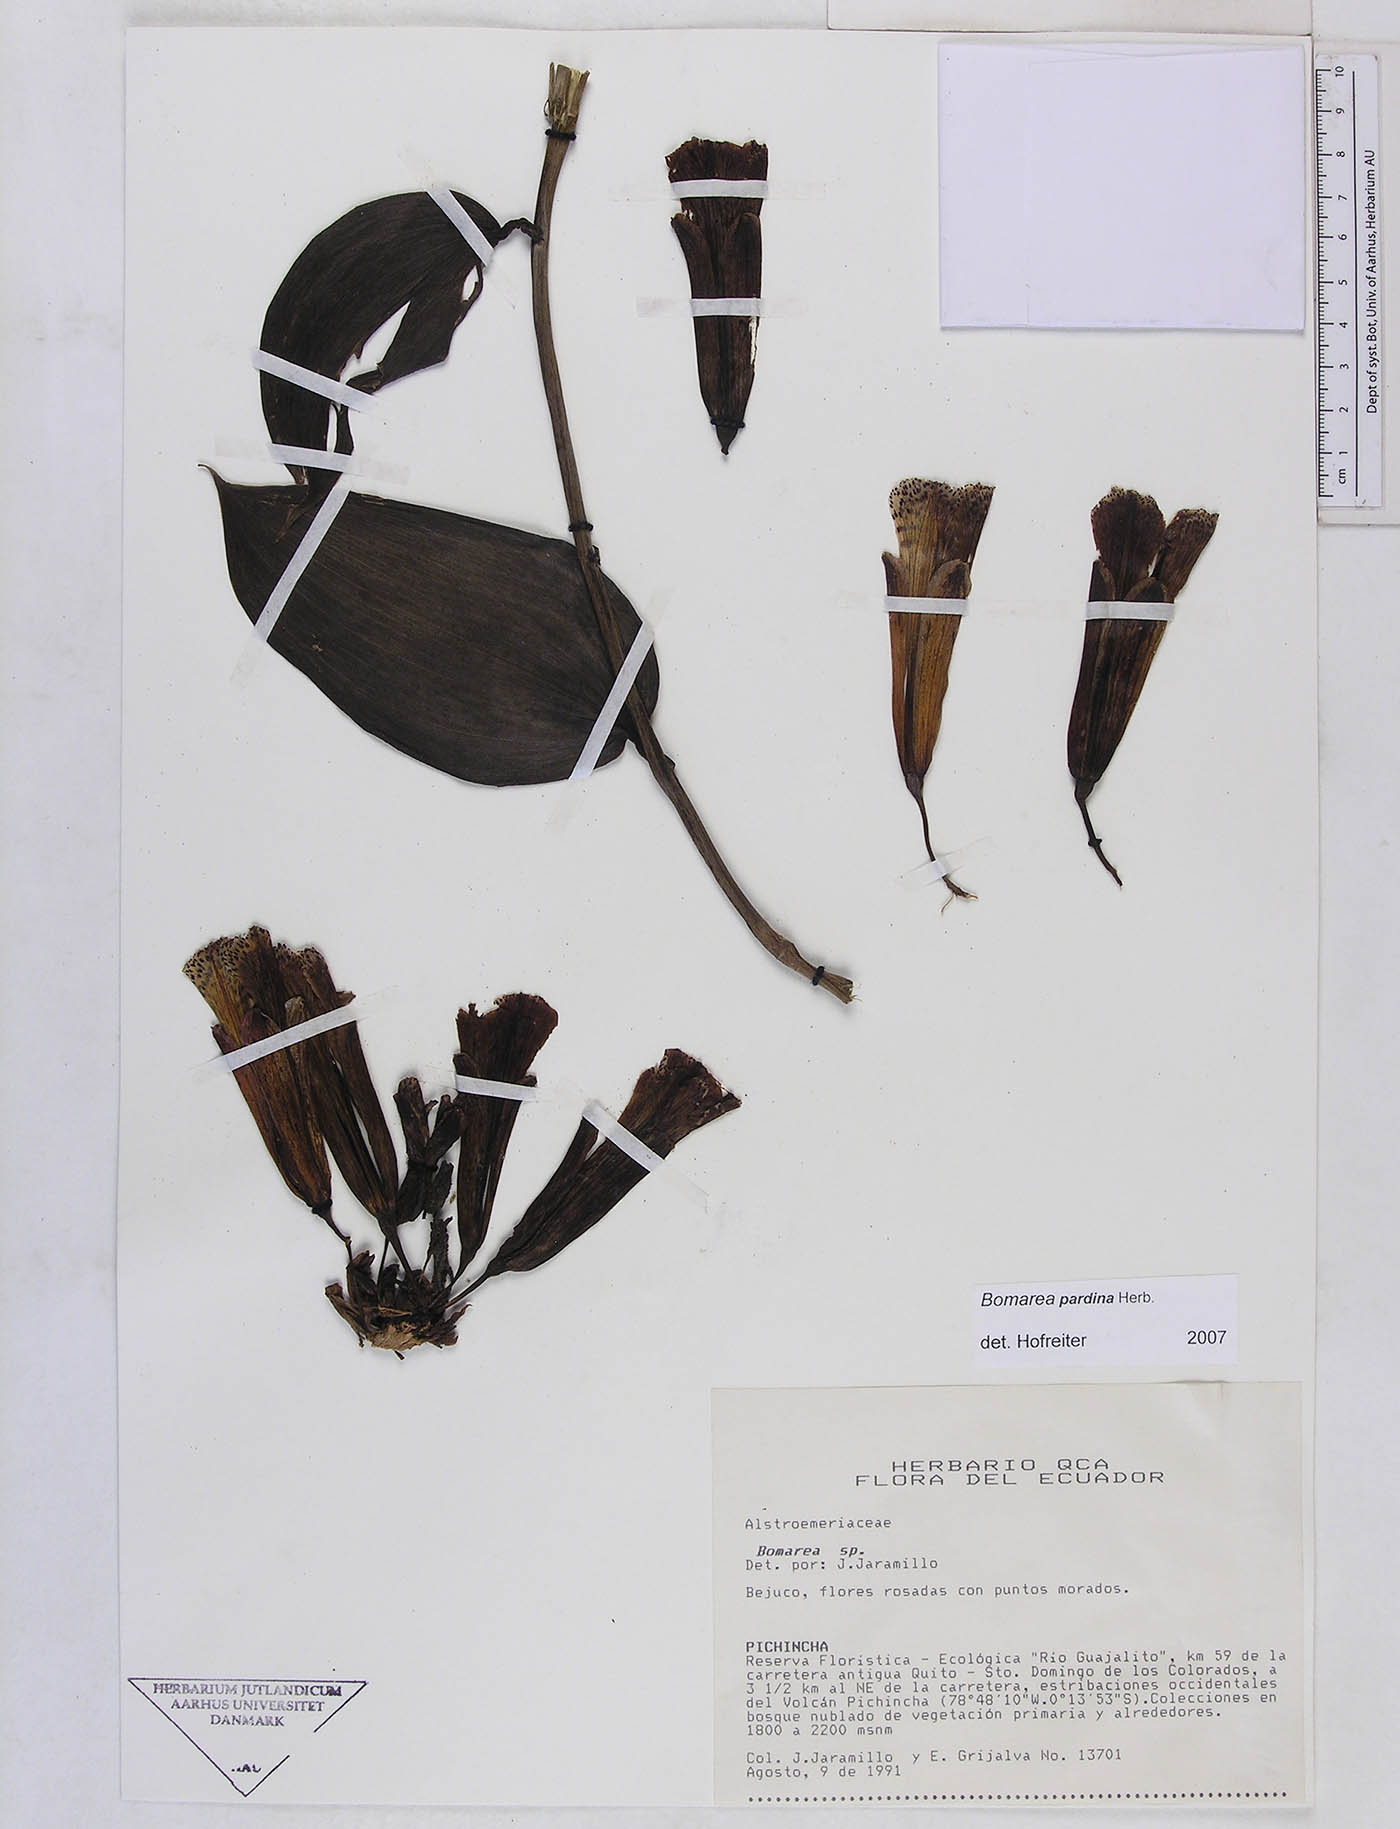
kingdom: Plantae
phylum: Tracheophyta
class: Liliopsida
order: Liliales
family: Alstroemeriaceae
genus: Bomarea
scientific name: Bomarea pardina
